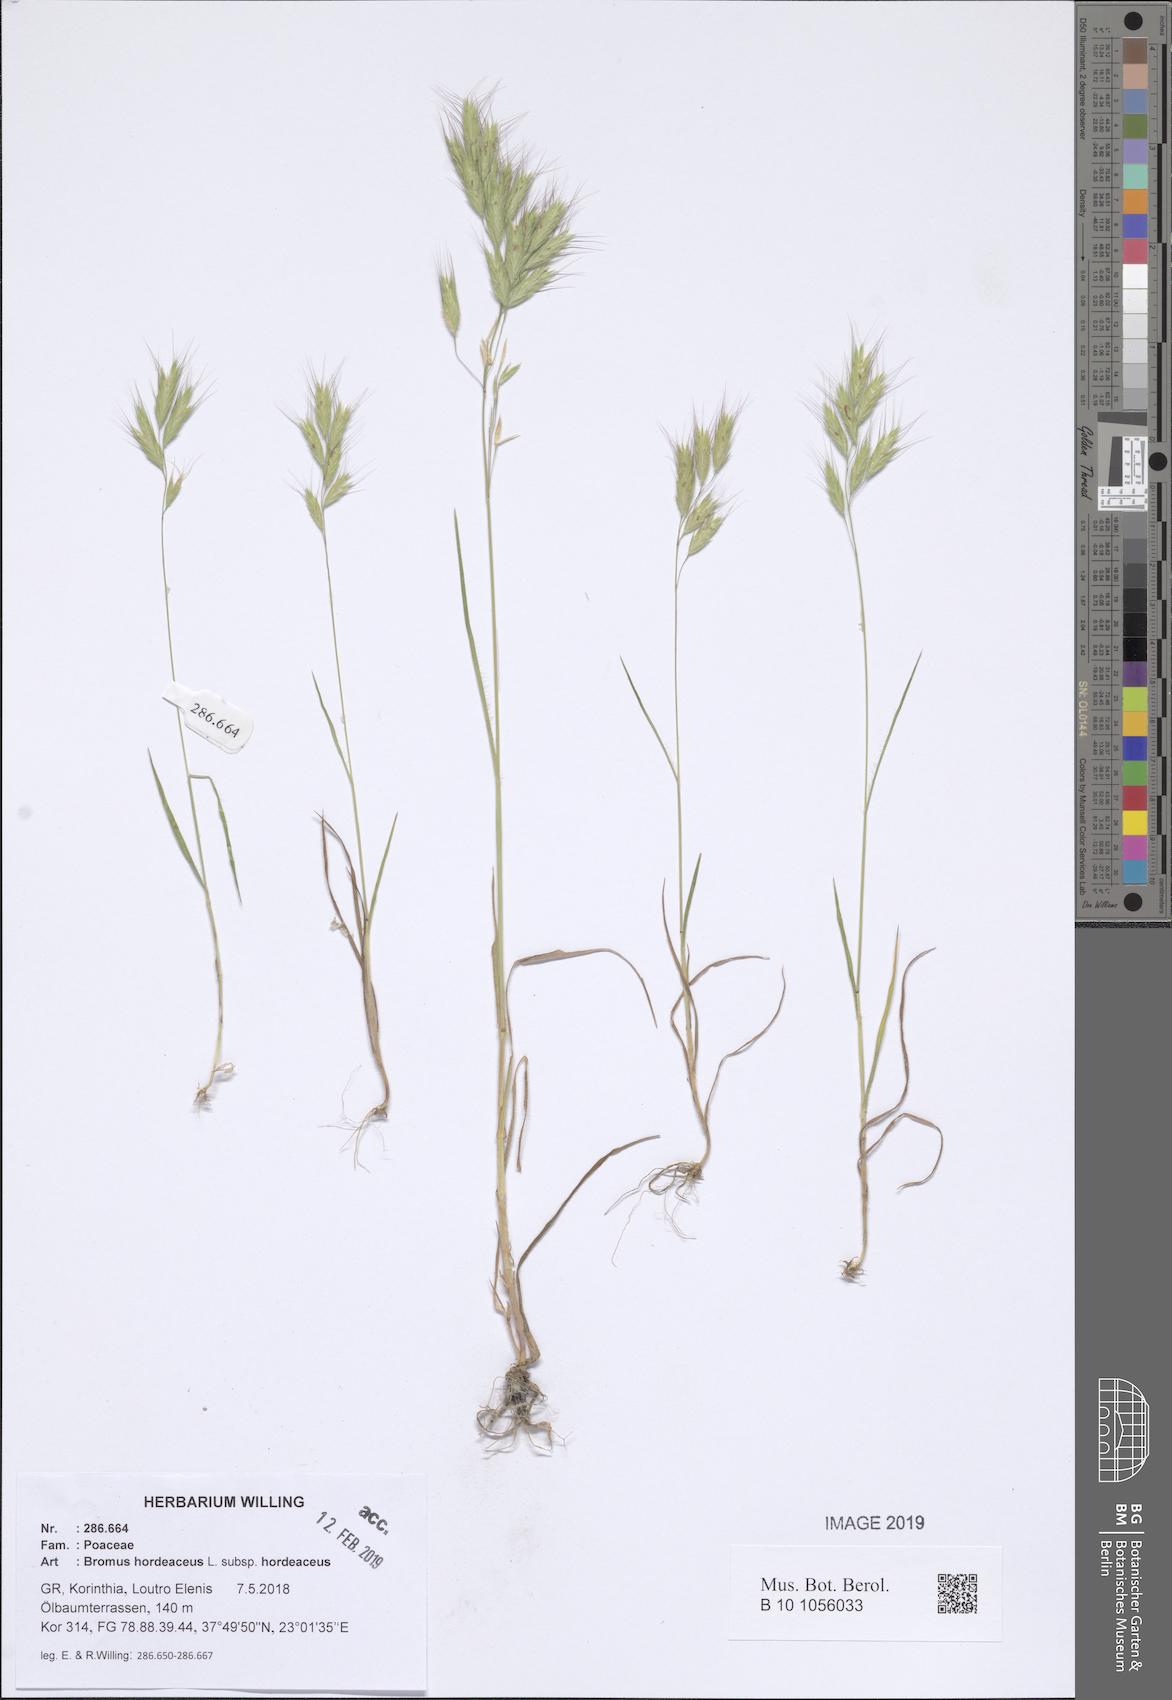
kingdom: Plantae
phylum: Tracheophyta
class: Liliopsida
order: Poales
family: Poaceae
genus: Bromus
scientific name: Bromus hordeaceus
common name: Soft brome
